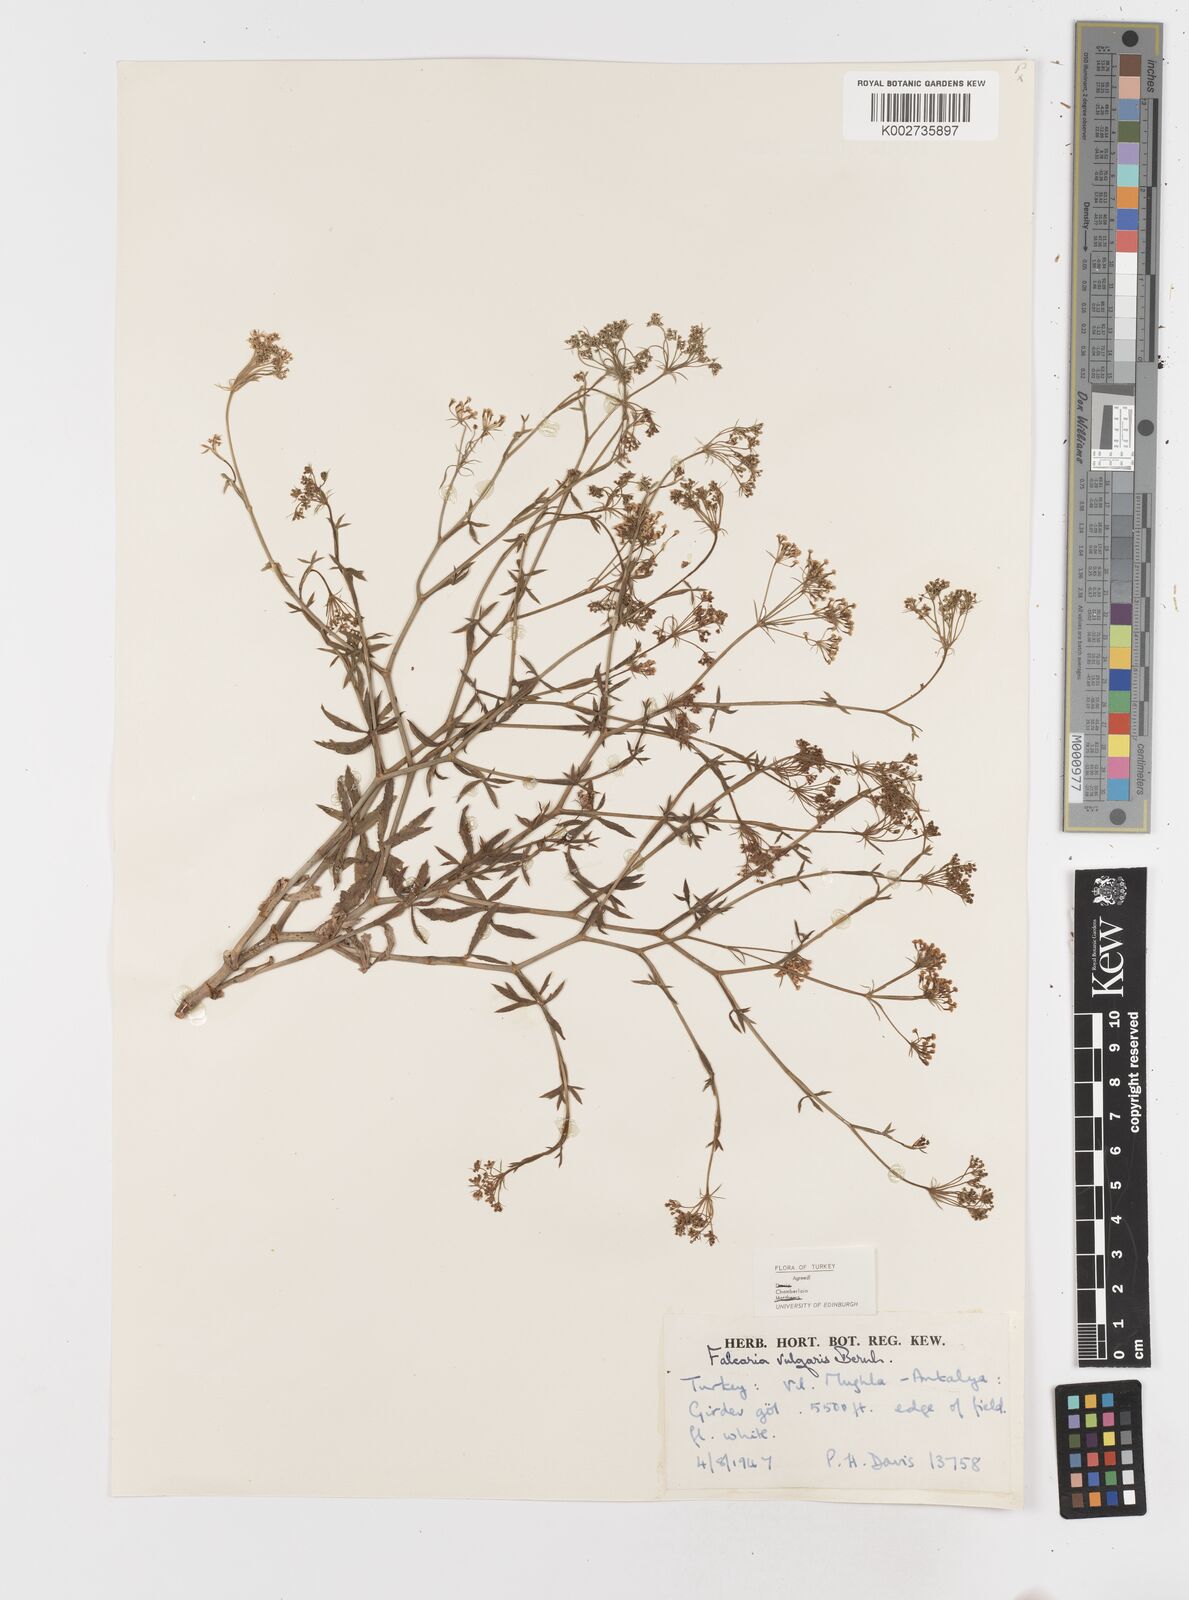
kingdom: Plantae
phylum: Tracheophyta
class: Magnoliopsida
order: Apiales
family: Apiaceae
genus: Falcaria
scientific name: Falcaria vulgaris
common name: Longleaf
